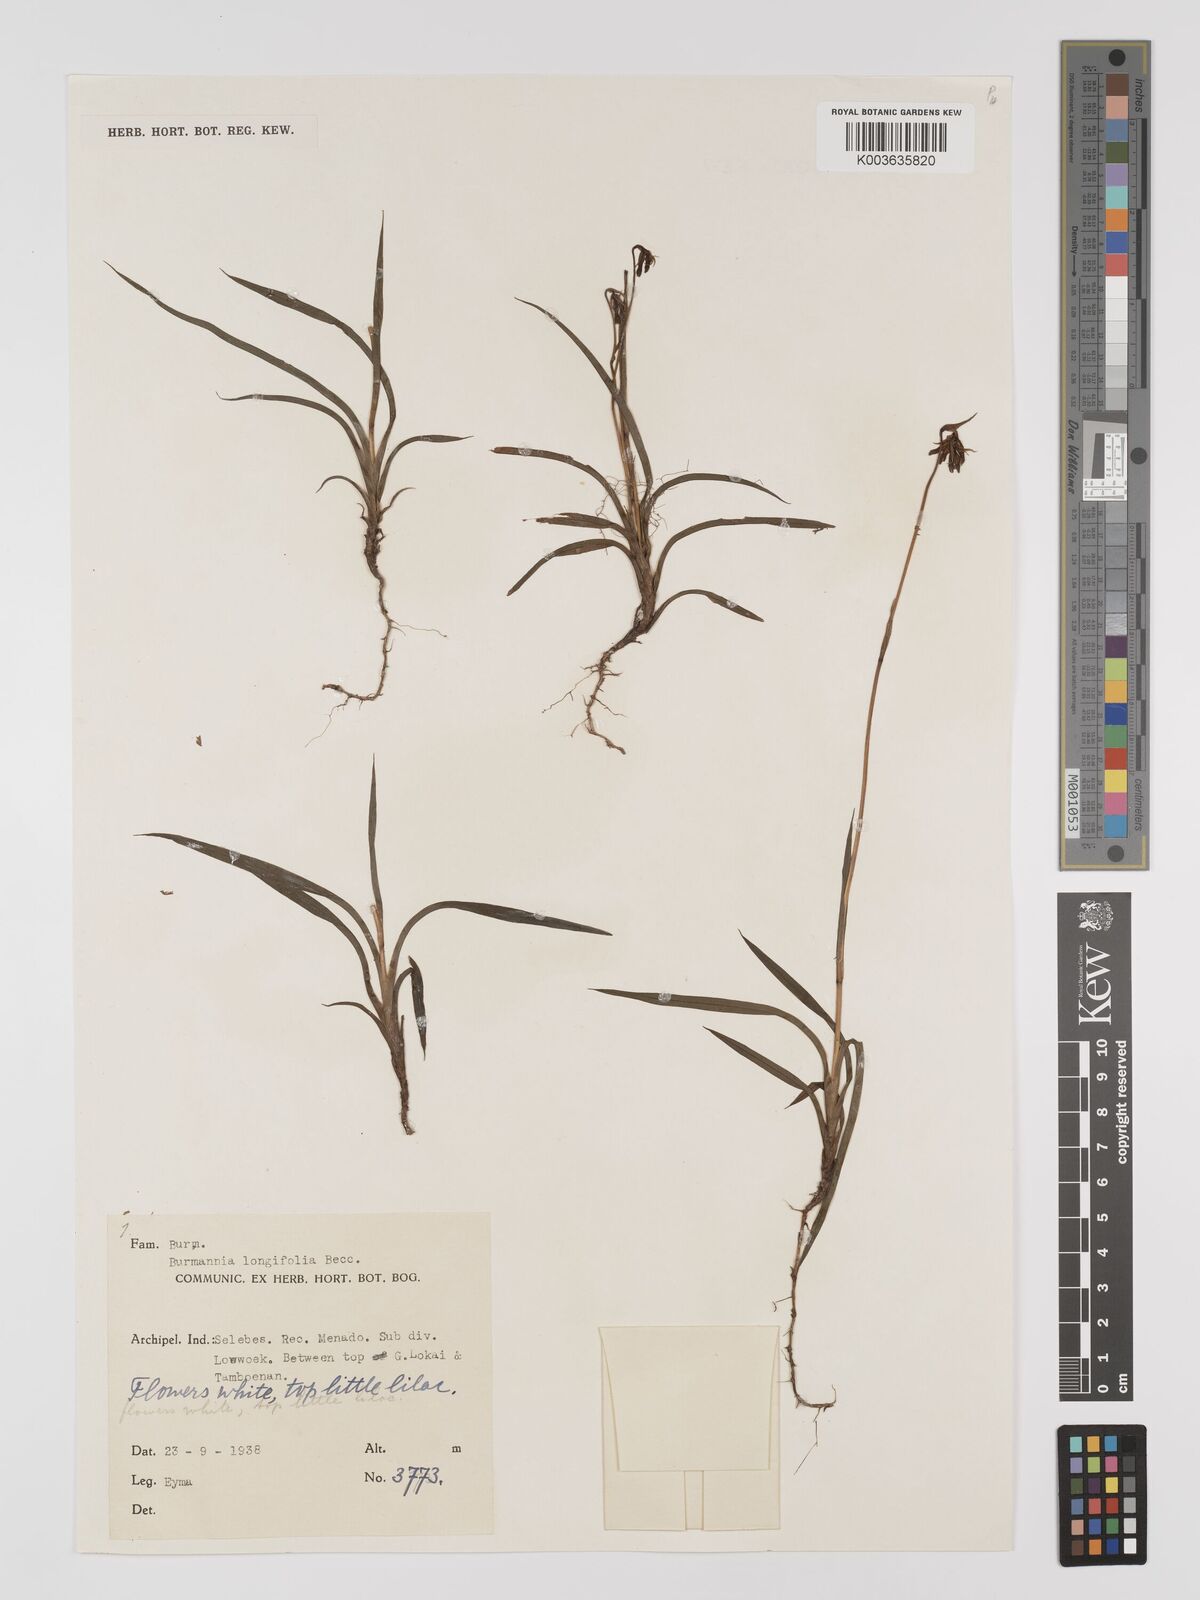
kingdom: Plantae
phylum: Tracheophyta
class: Liliopsida
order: Dioscoreales
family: Burmanniaceae
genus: Burmannia
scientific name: Burmannia longifolia
